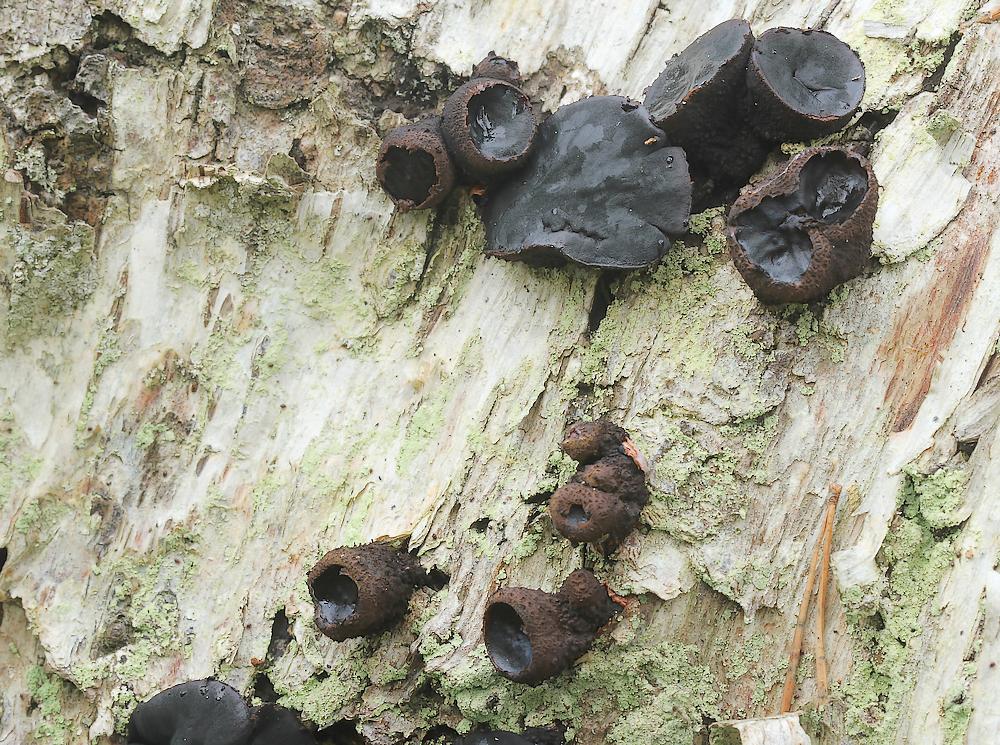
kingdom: Fungi
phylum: Ascomycota
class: Leotiomycetes
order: Phacidiales
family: Phacidiaceae
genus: Bulgaria
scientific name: Bulgaria inquinans
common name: afsmittende topsvamp
